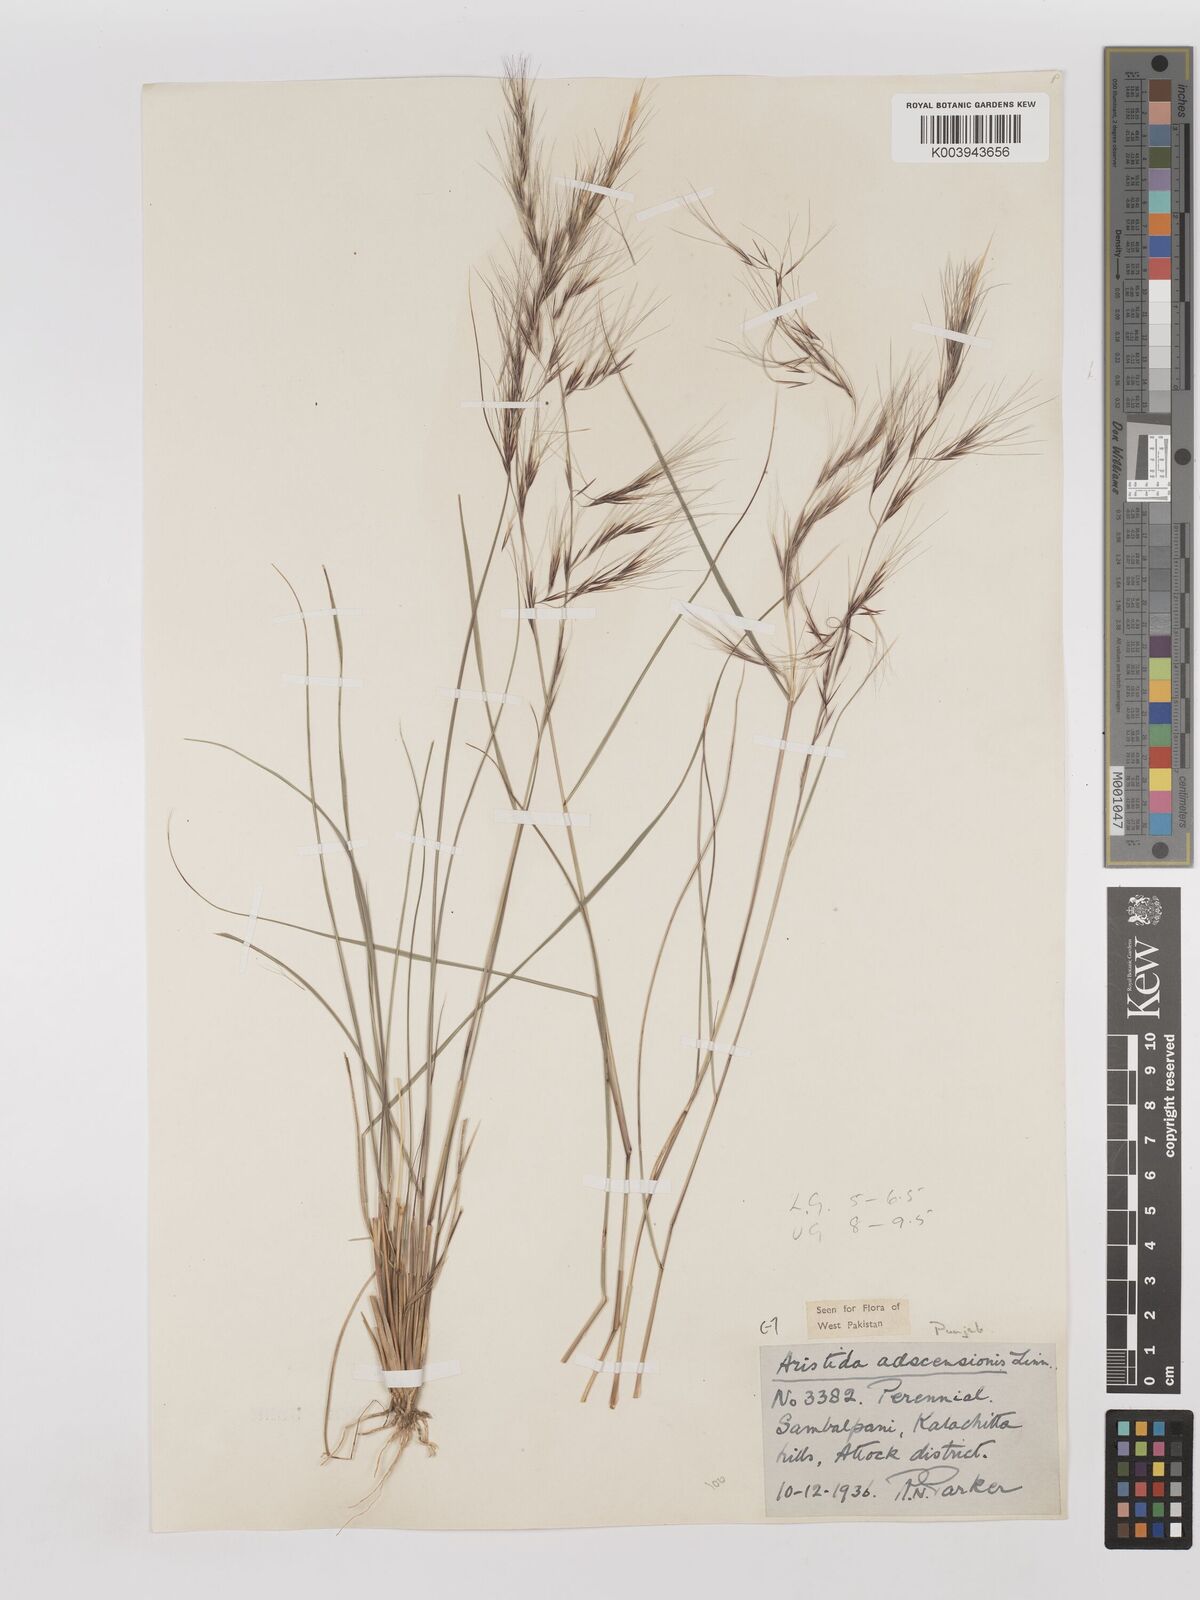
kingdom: Plantae
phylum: Tracheophyta
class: Liliopsida
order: Poales
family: Poaceae
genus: Aristida
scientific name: Aristida adscensionis
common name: Sixweeks threeawn
